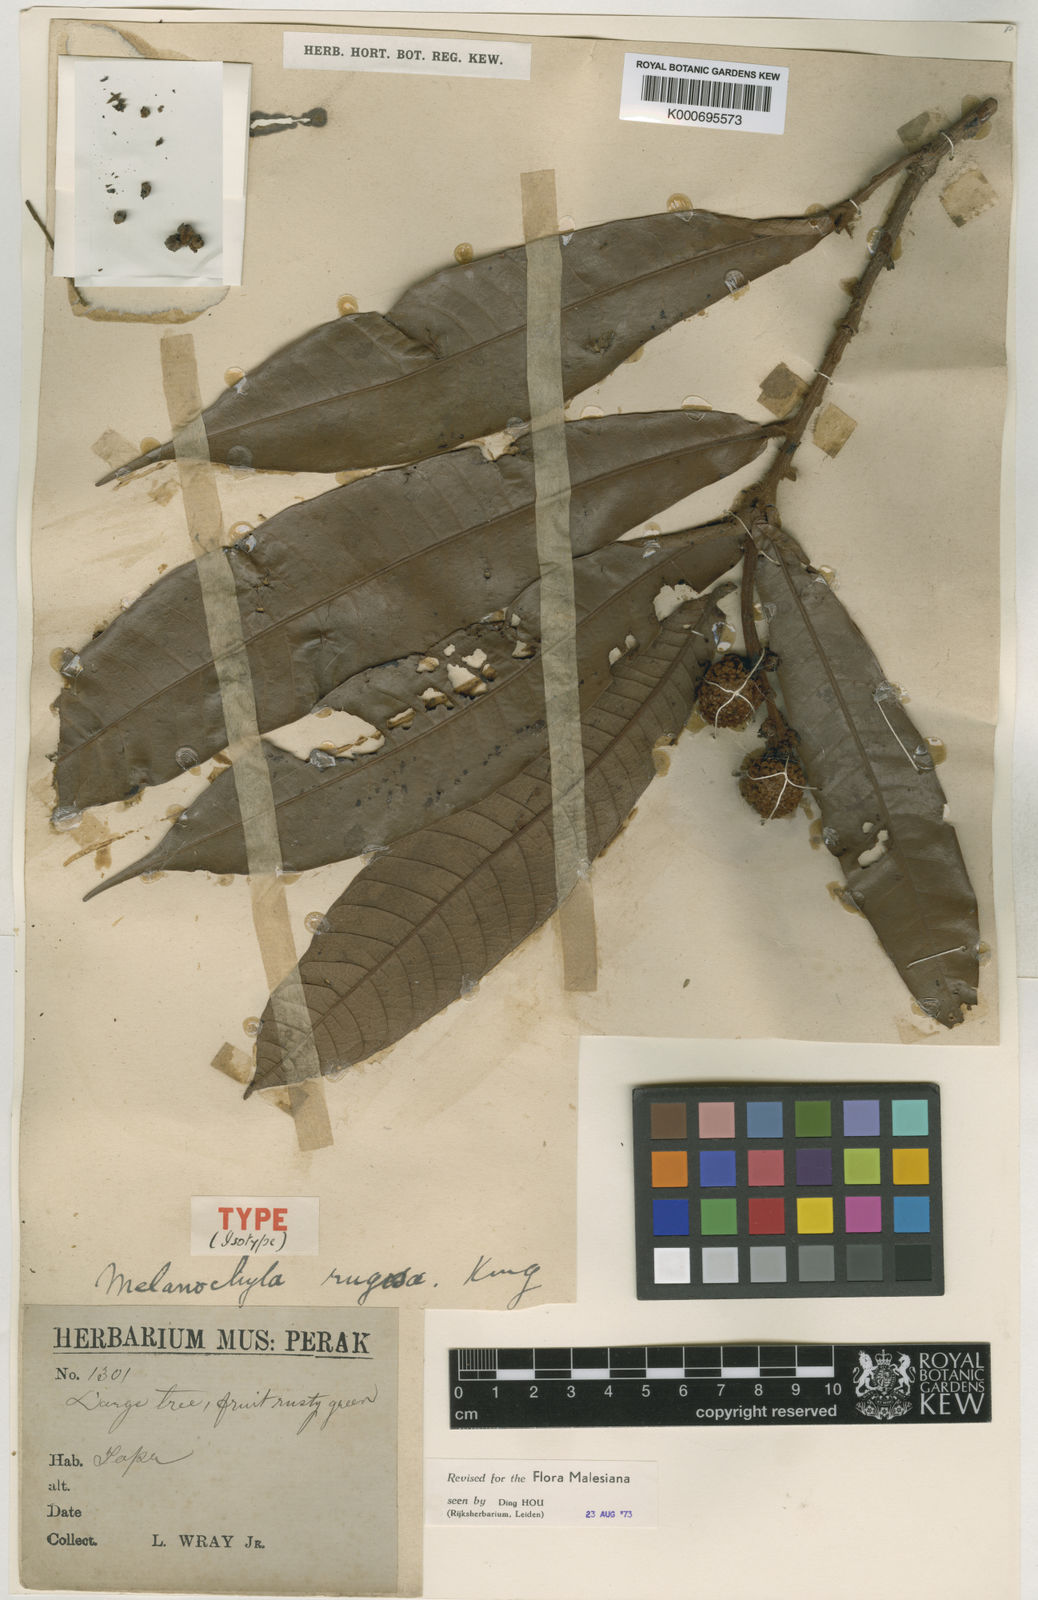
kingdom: Plantae
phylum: Tracheophyta
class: Magnoliopsida
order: Sapindales
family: Anacardiaceae
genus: Melanochyla
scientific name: Melanochyla
